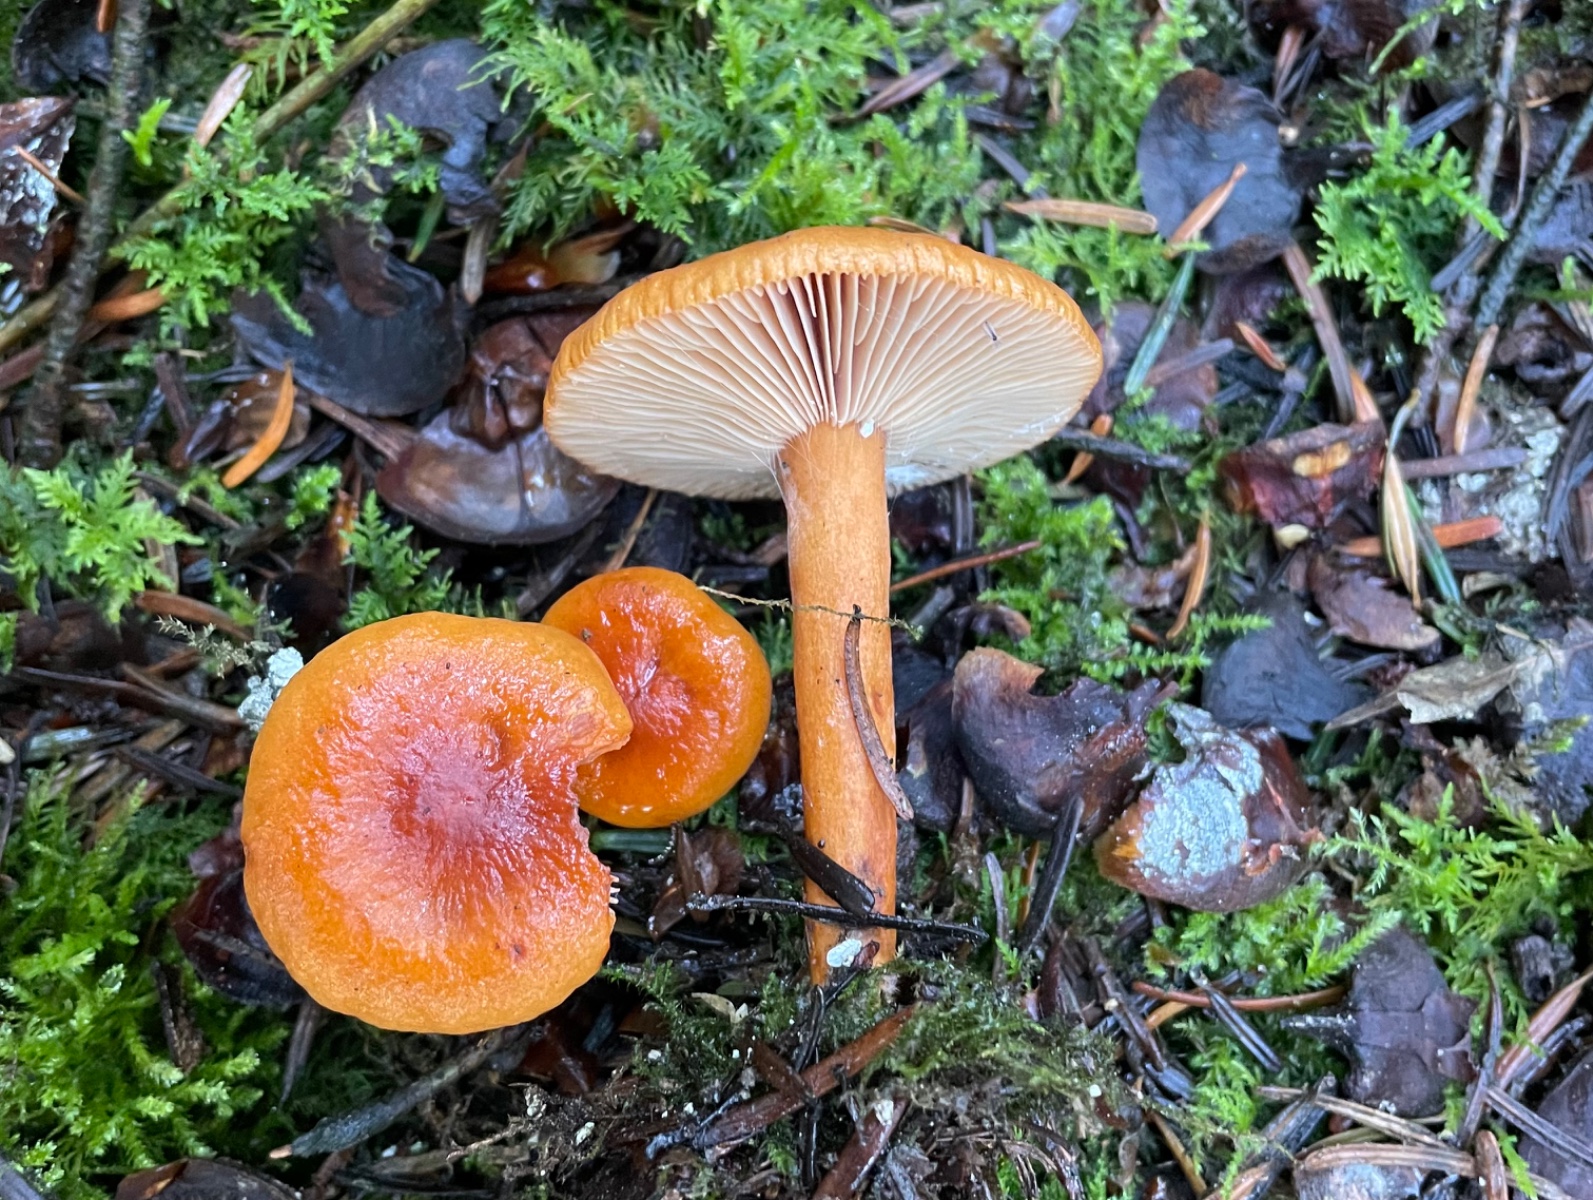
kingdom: Fungi
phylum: Basidiomycota
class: Agaricomycetes
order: Russulales
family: Russulaceae
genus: Lactarius
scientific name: Lactarius aurantiacus
